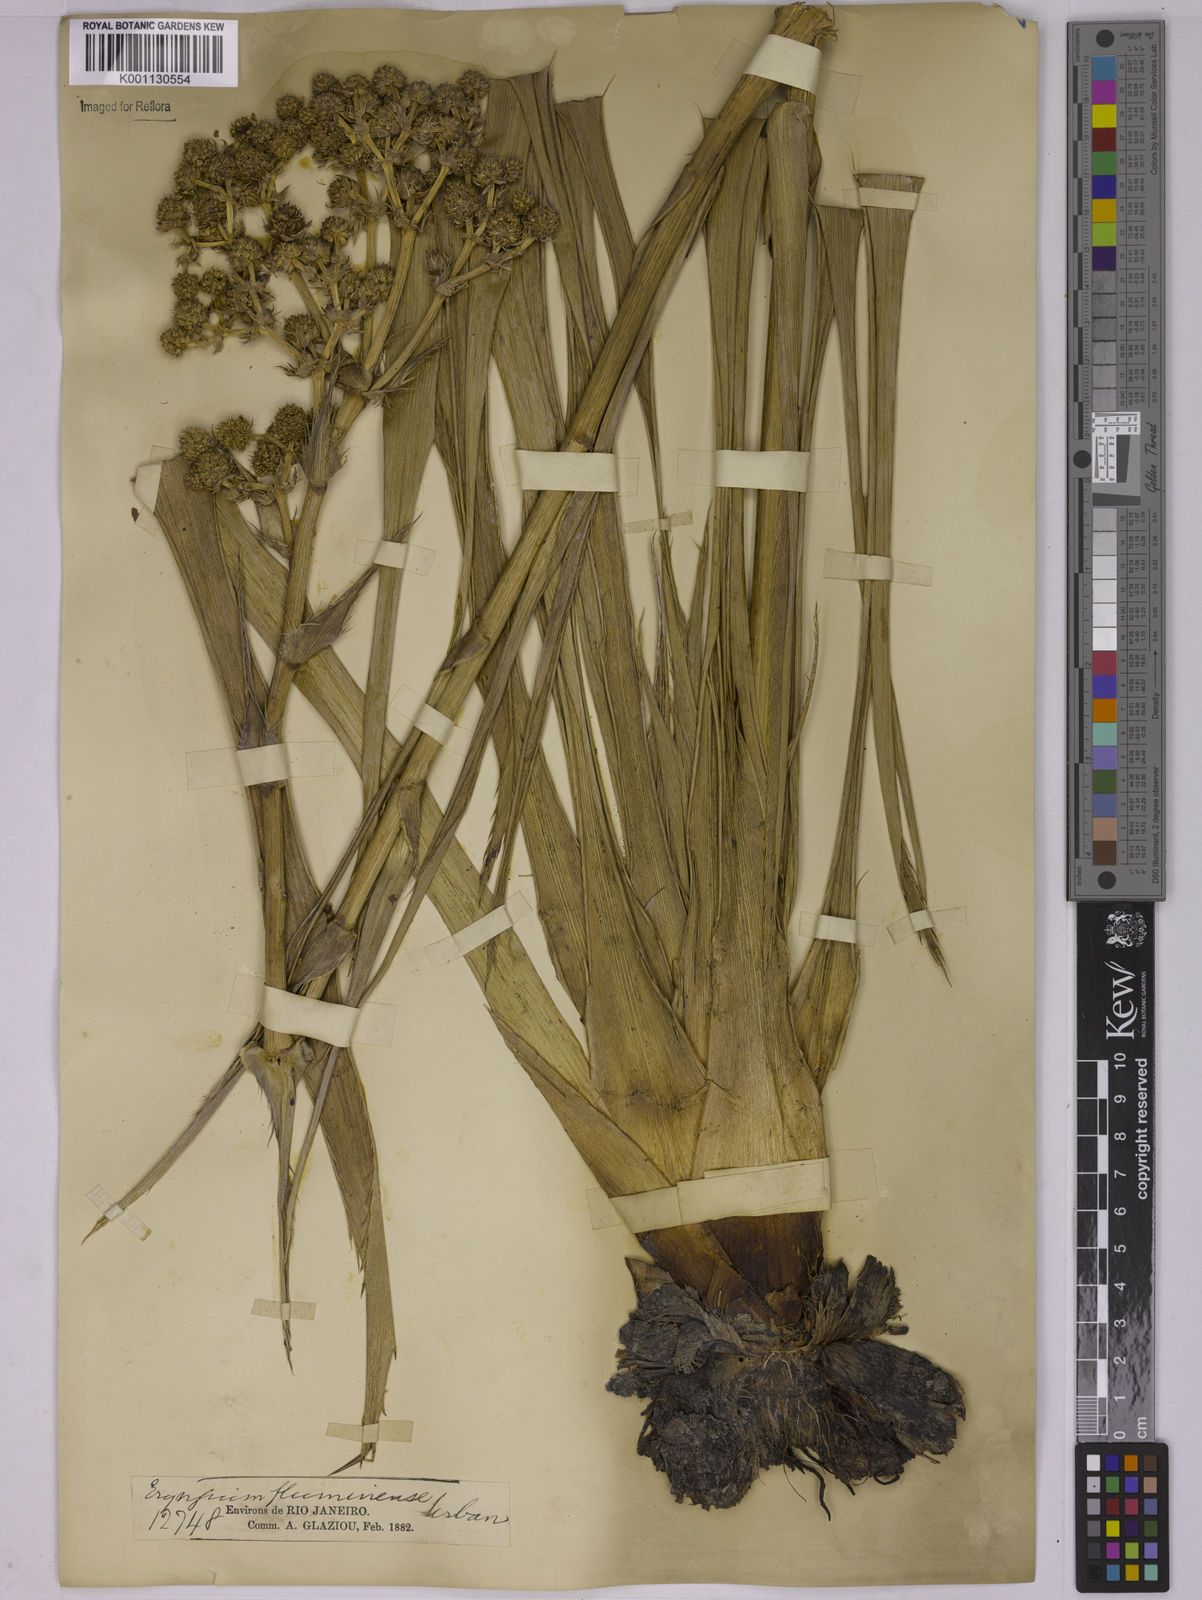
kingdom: Plantae
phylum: Tracheophyta
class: Magnoliopsida
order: Apiales
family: Apiaceae
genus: Eryngium
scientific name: Eryngium fluminense
